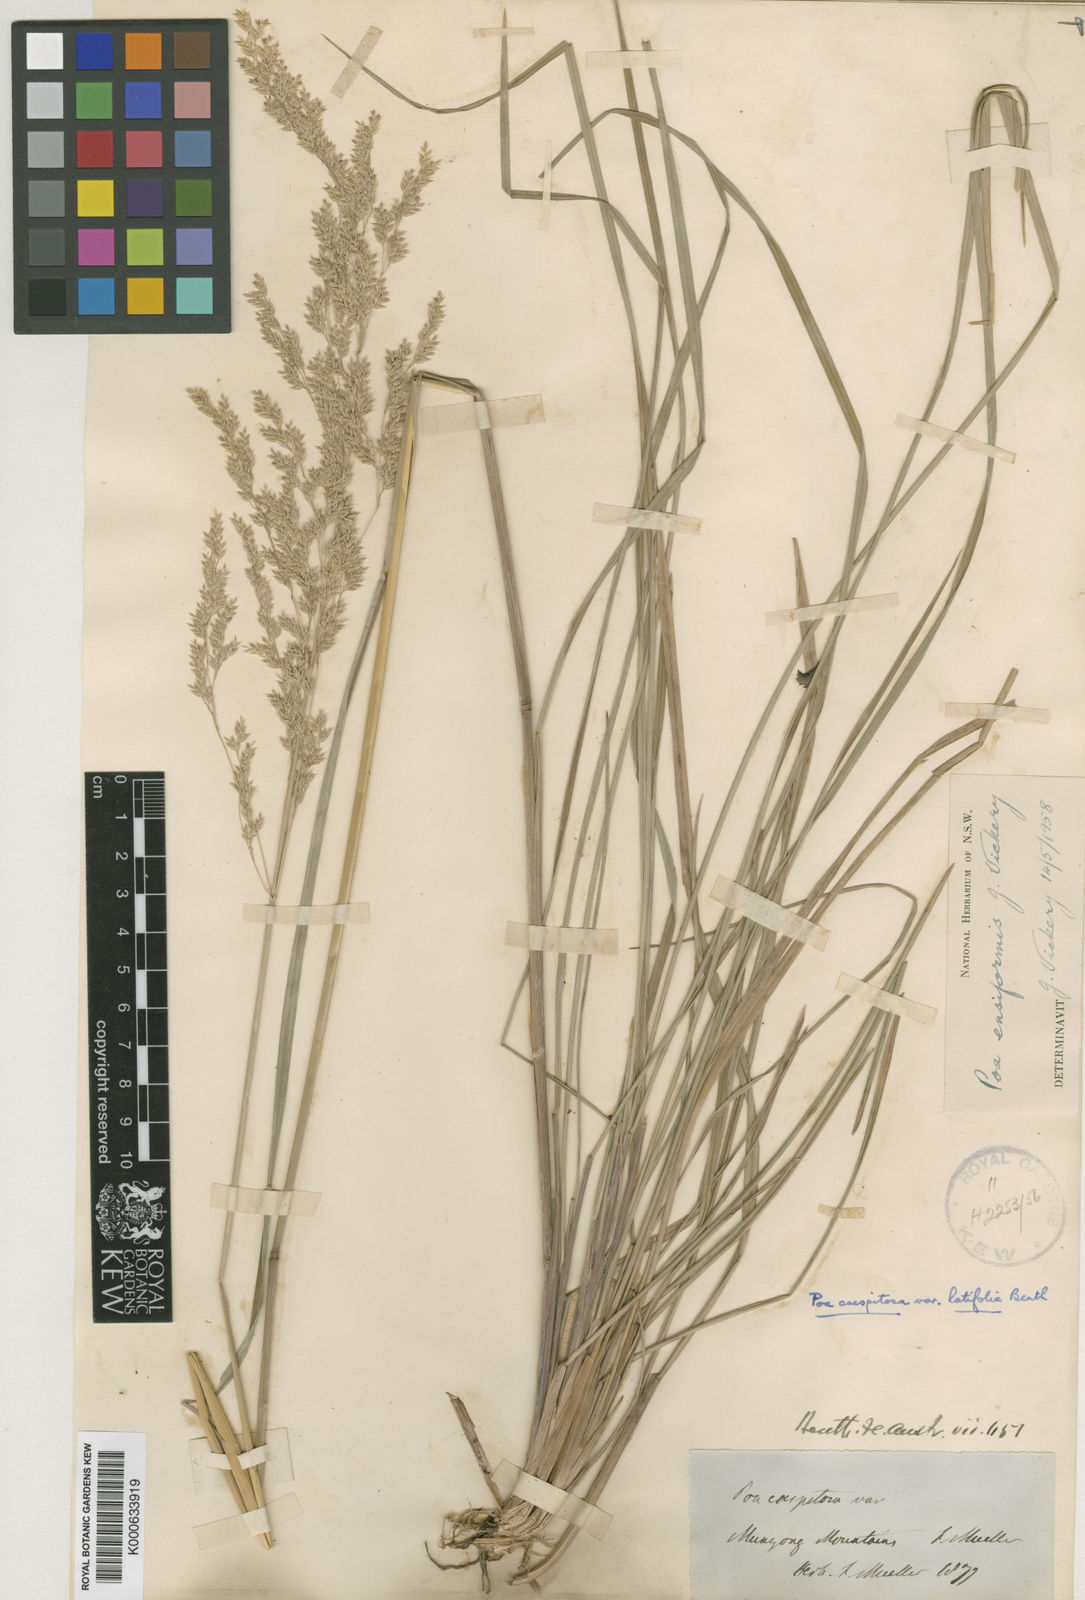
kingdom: Plantae
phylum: Tracheophyta
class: Liliopsida
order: Poales
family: Poaceae
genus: Poa
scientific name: Poa ensiformis
